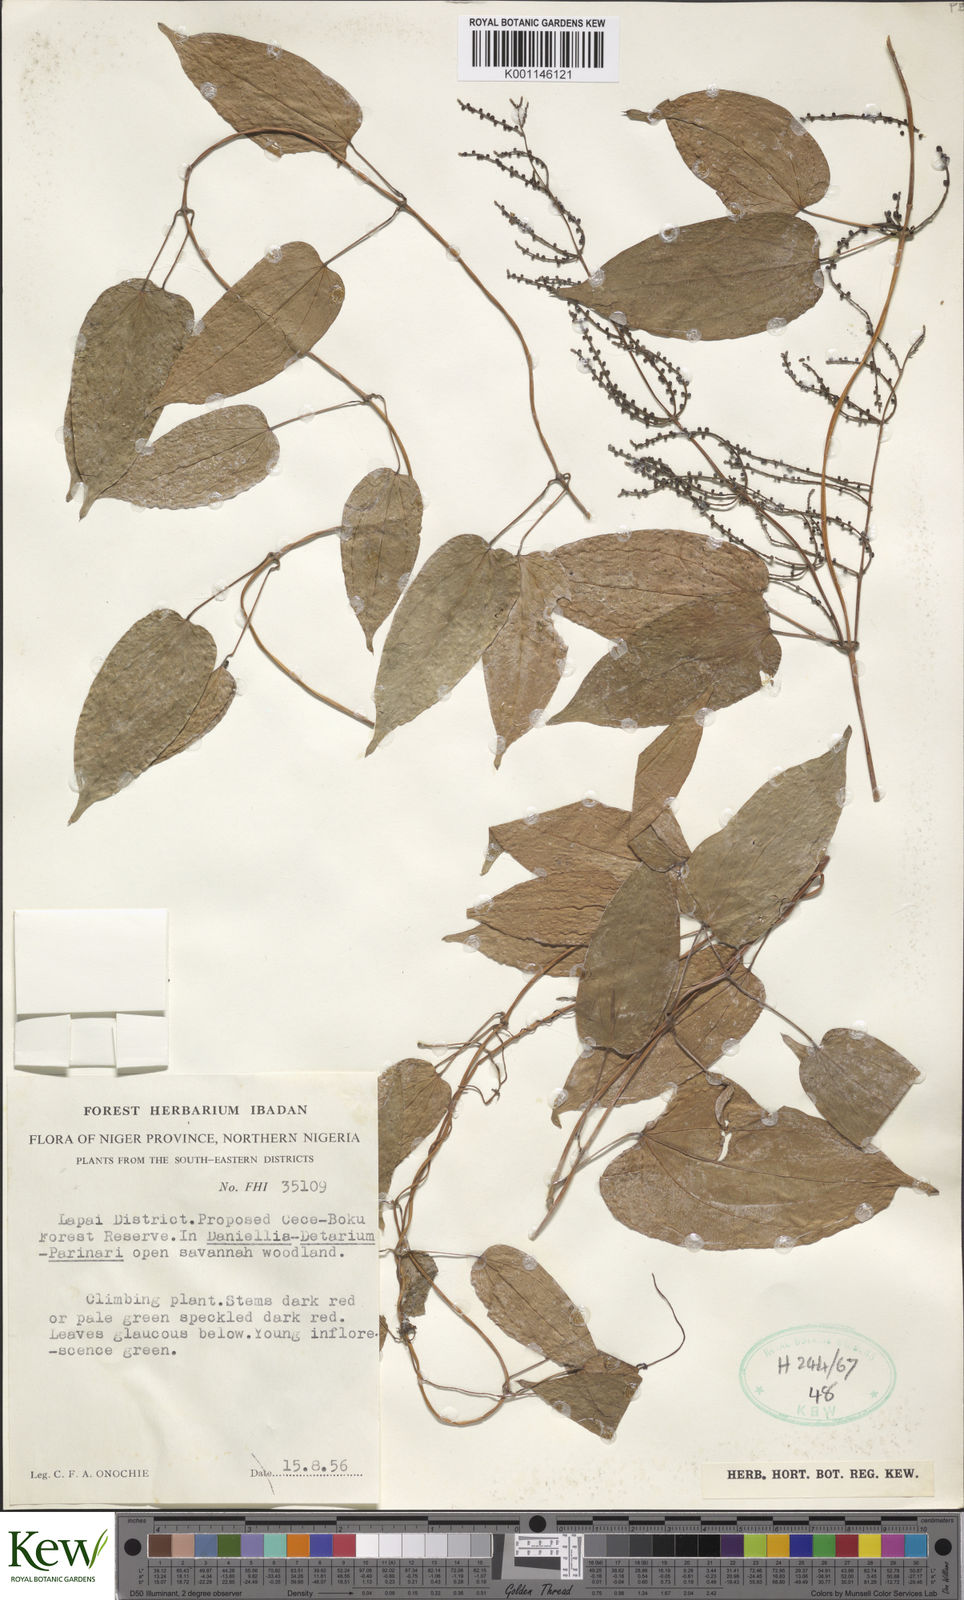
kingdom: Plantae
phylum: Tracheophyta
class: Liliopsida
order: Dioscoreales
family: Dioscoreaceae
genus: Dioscorea
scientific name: Dioscorea
